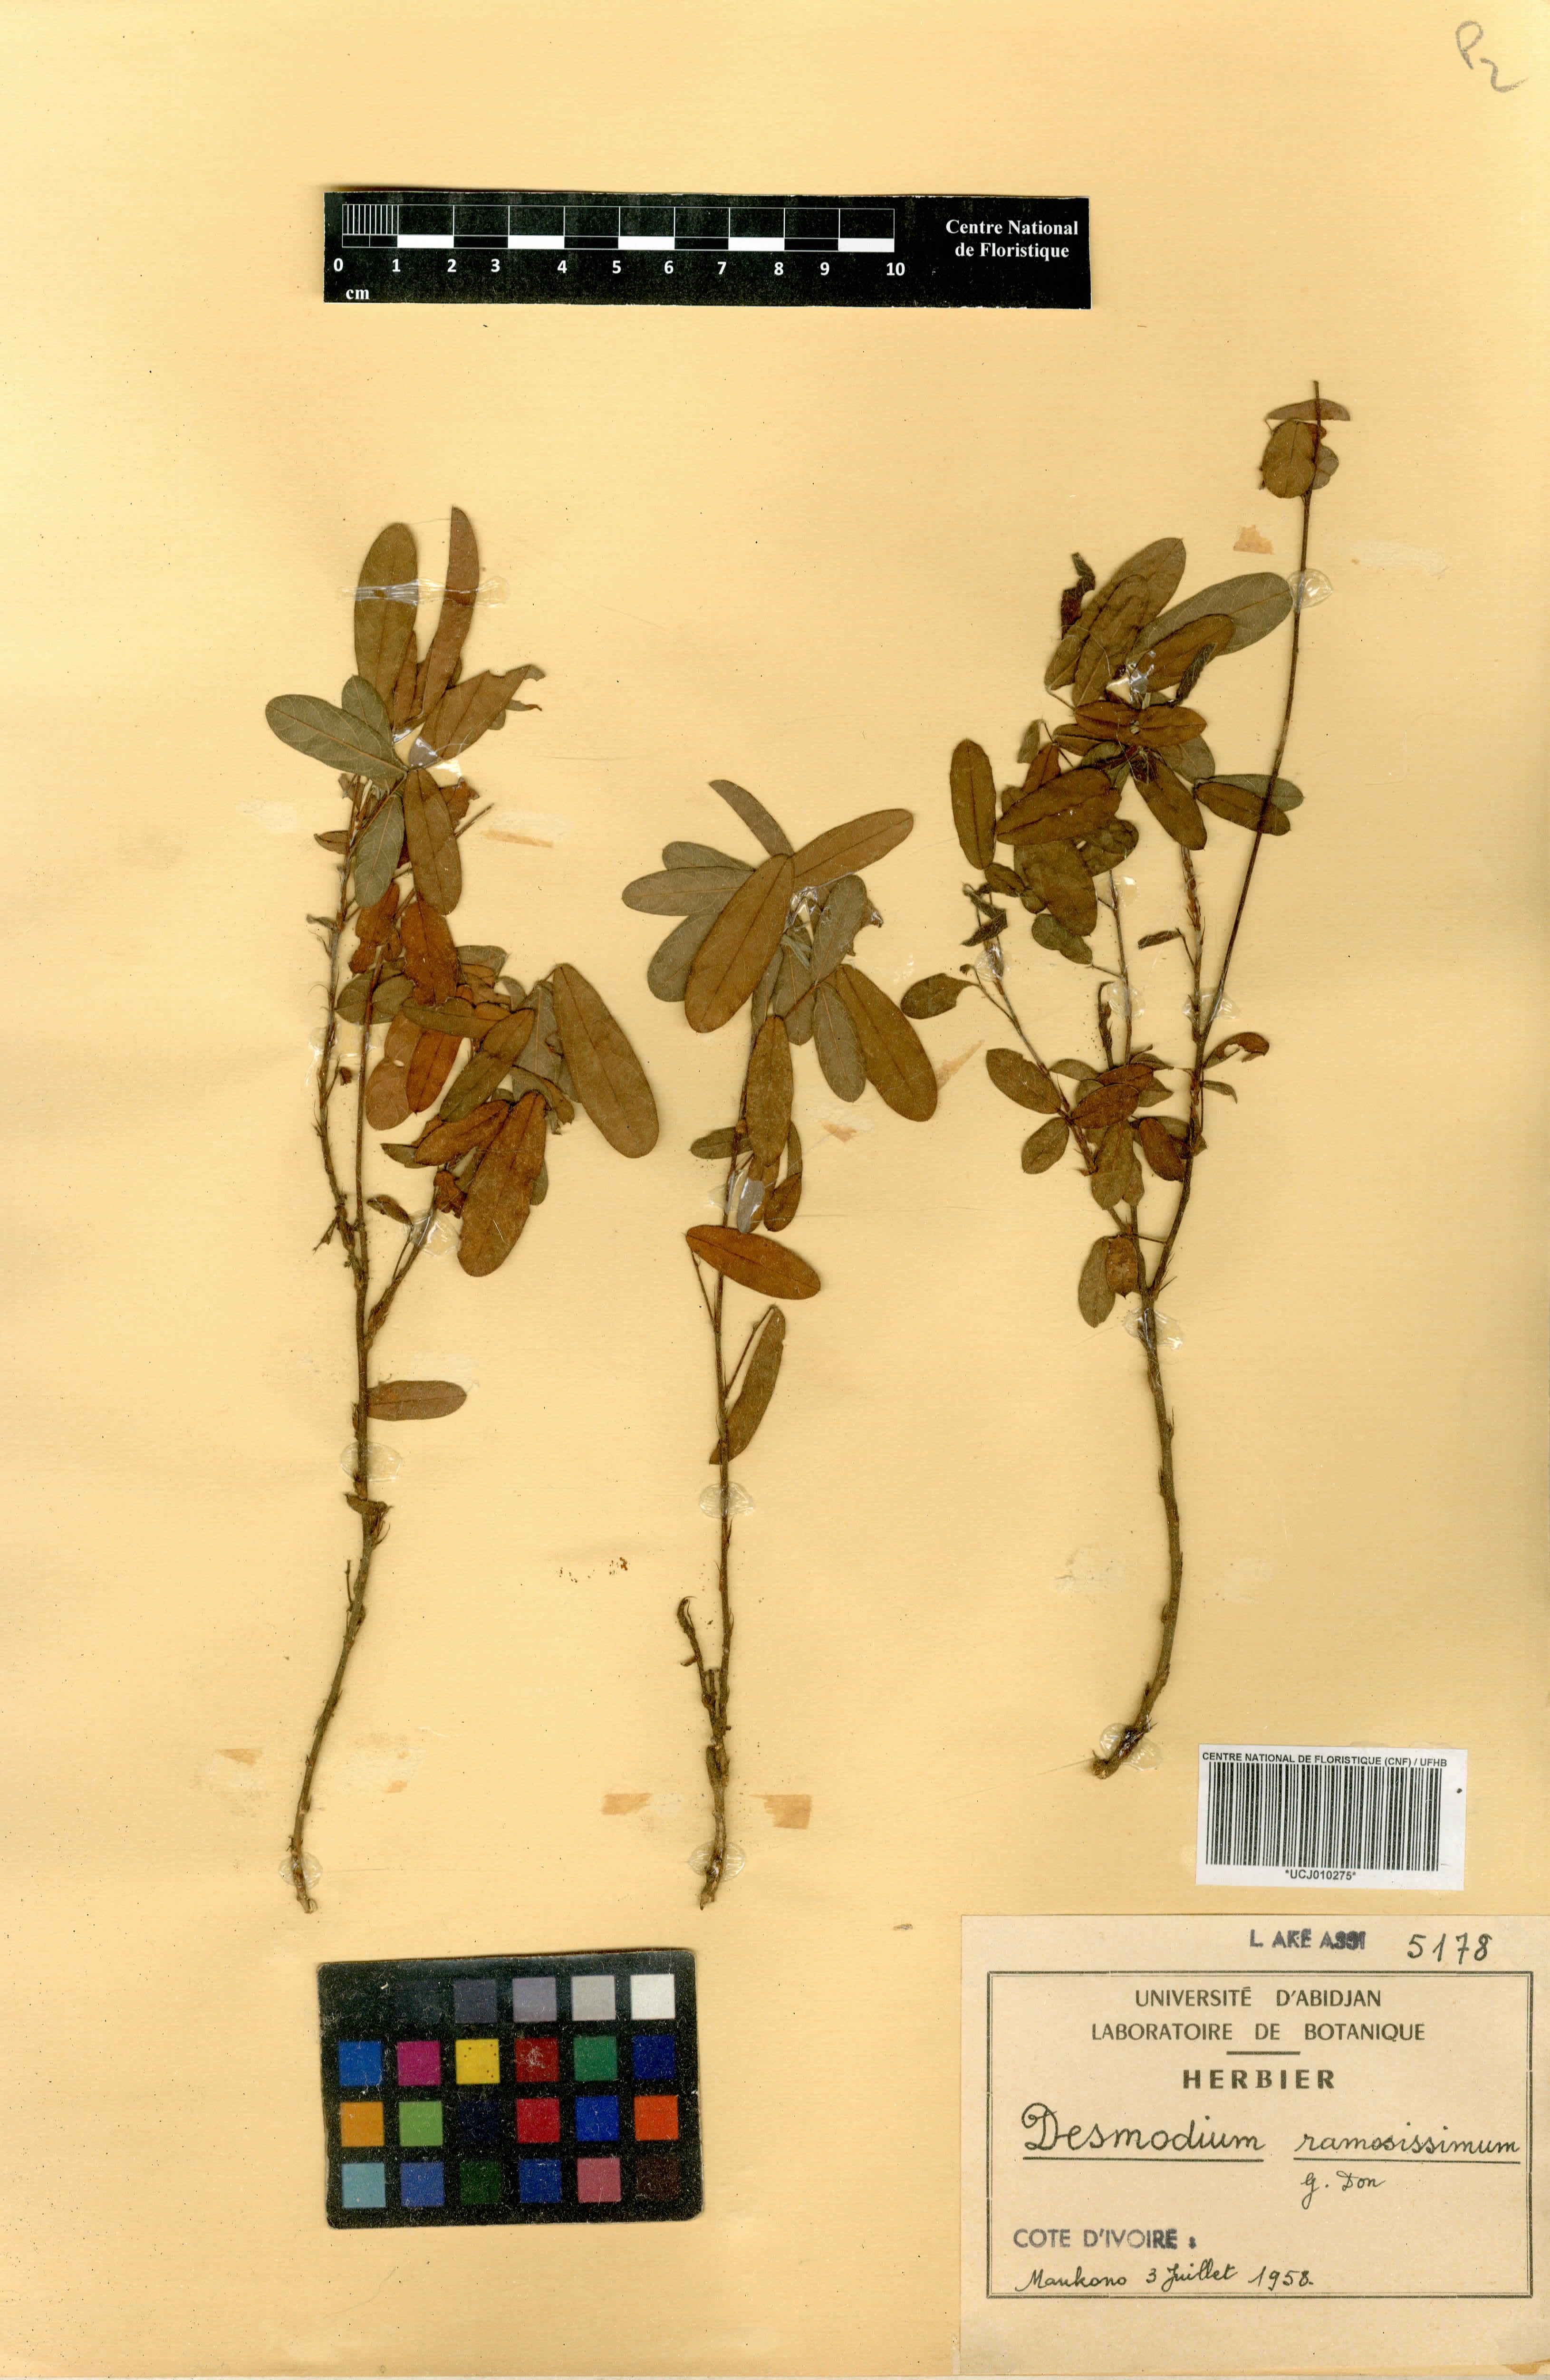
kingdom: Plantae
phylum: Tracheophyta
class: Magnoliopsida
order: Fabales
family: Fabaceae
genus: Grona
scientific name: Grona ramosissima
